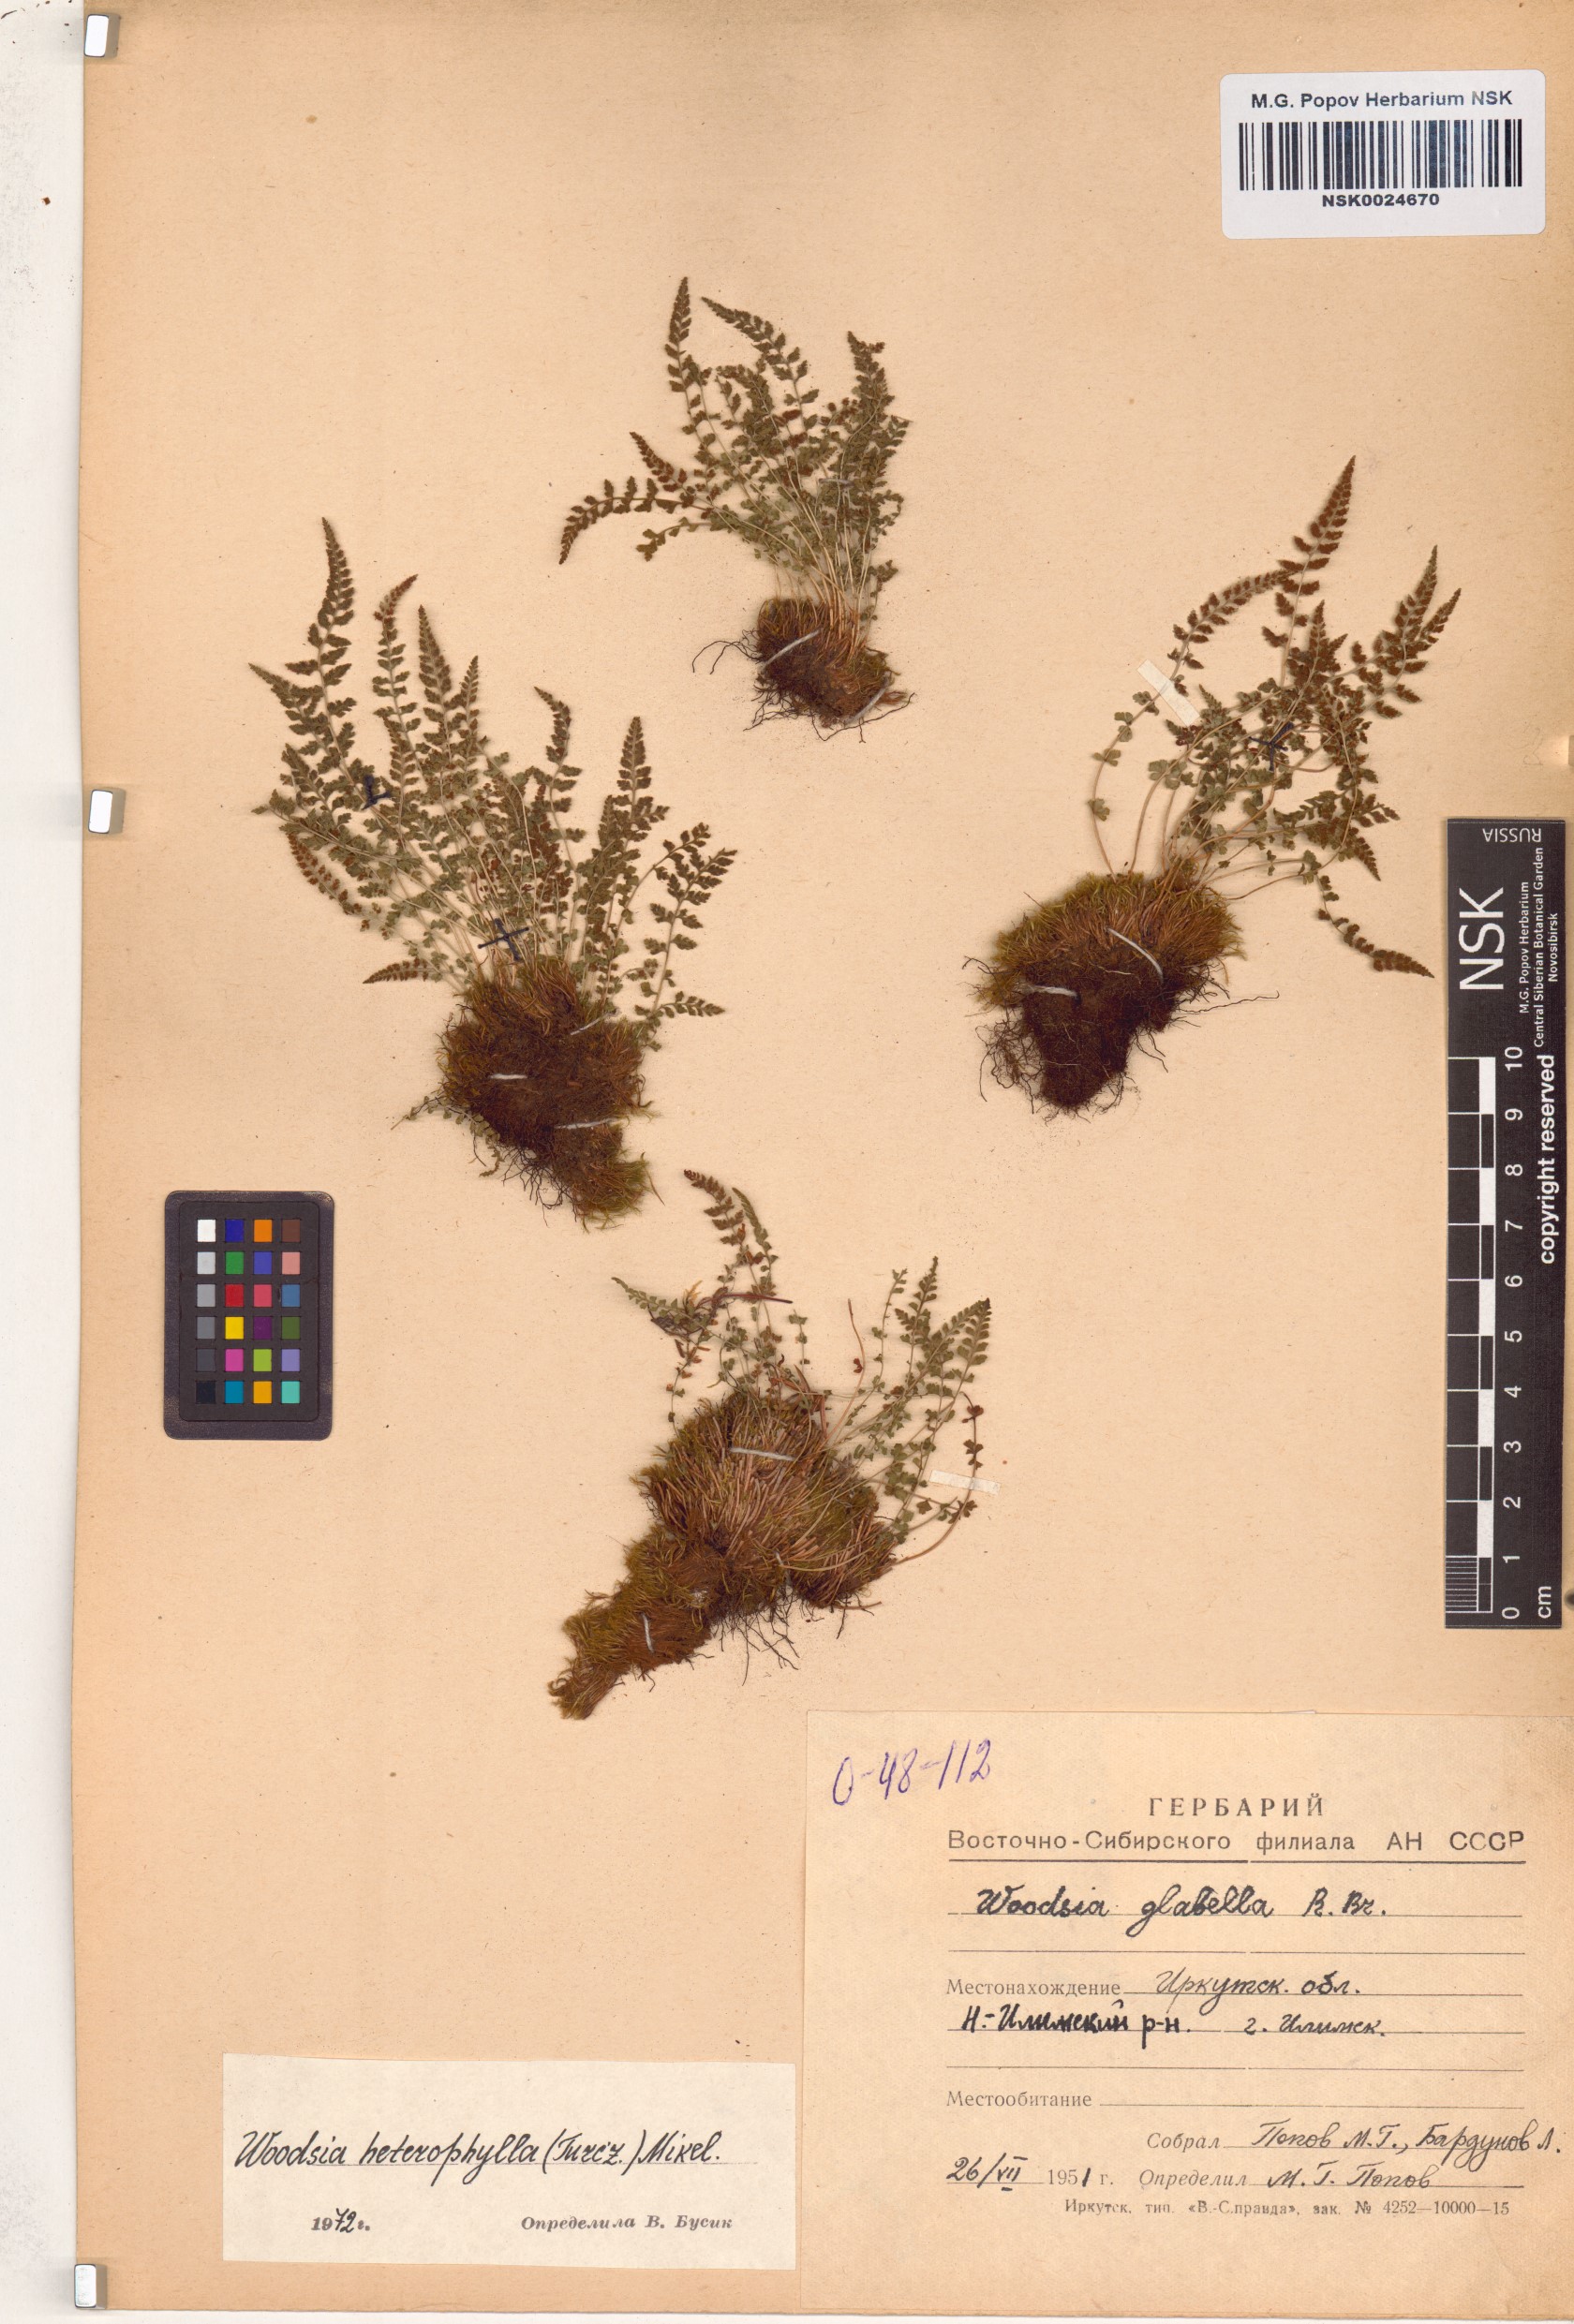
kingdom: Plantae
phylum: Tracheophyta
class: Polypodiopsida
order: Polypodiales
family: Woodsiaceae
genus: Woodsia
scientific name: Woodsia pulchella
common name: Graceful woodsia
